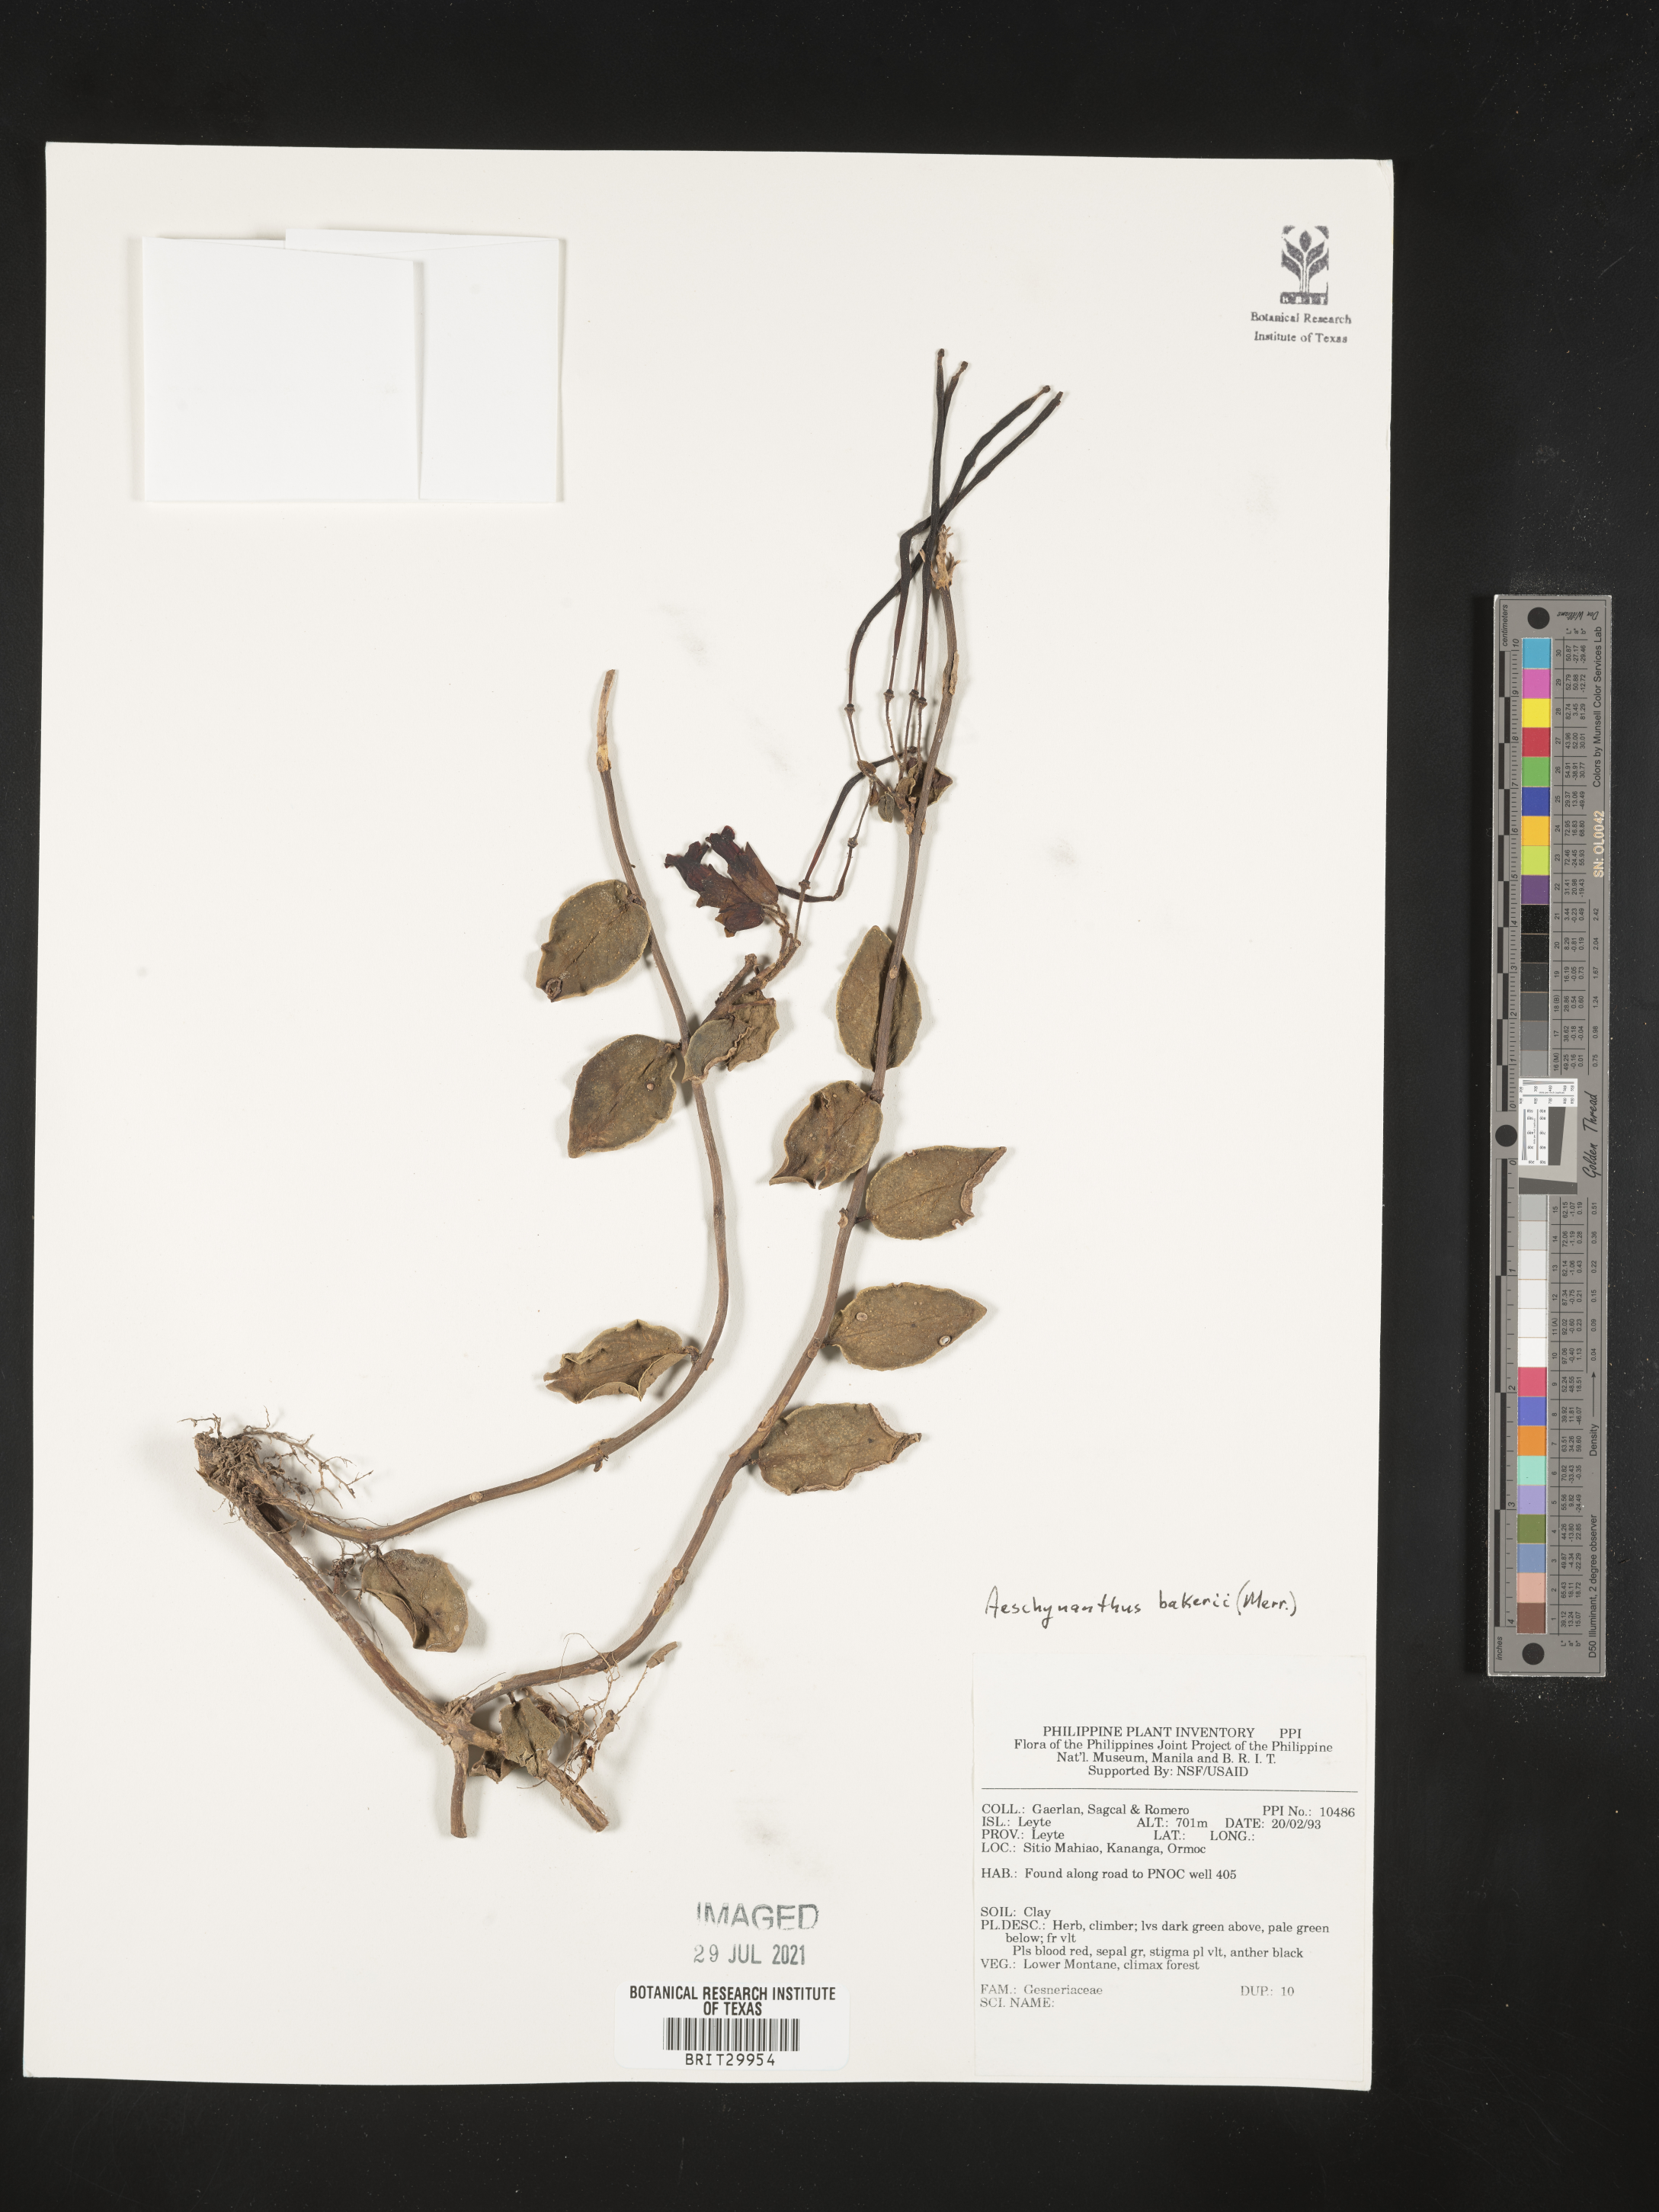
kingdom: Plantae
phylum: Tracheophyta
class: Magnoliopsida
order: Lamiales
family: Gesneriaceae
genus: Aeschynanthus
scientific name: Aeschynanthus loheri
